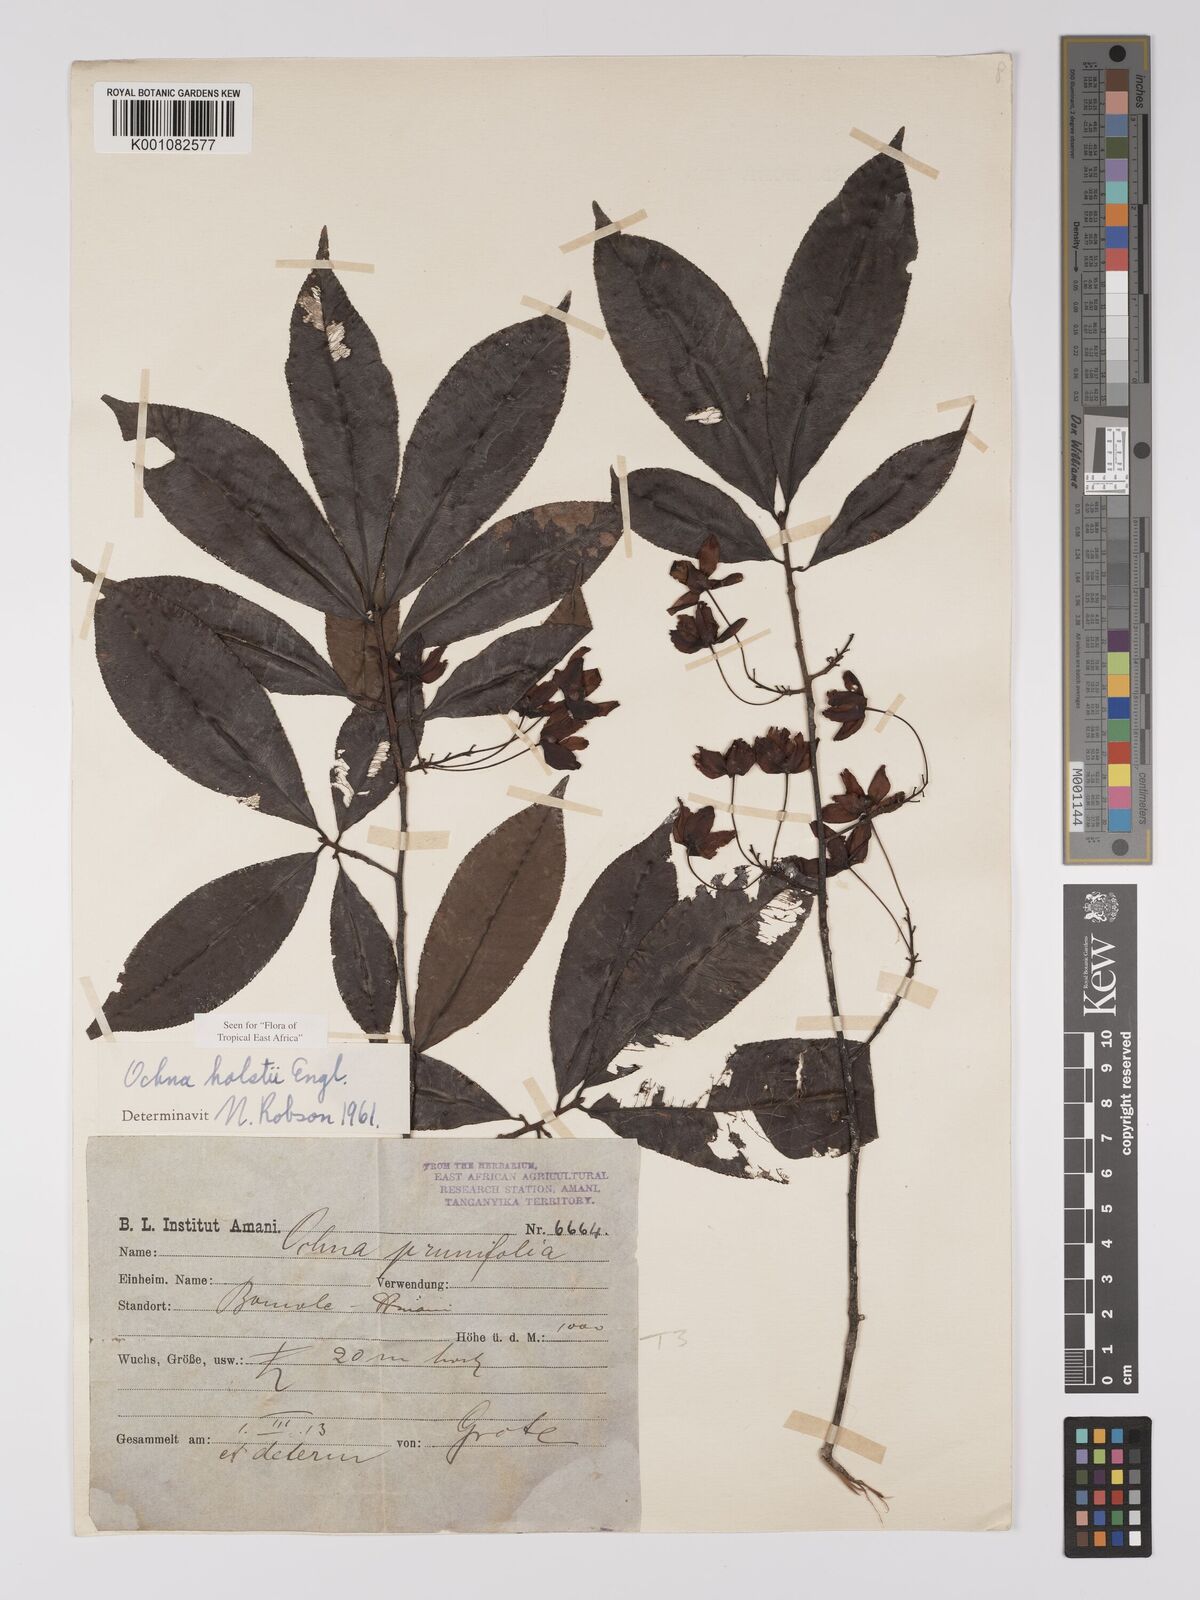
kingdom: Plantae
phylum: Tracheophyta
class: Magnoliopsida
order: Malpighiales
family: Ochnaceae
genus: Ochna
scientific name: Ochna holstii
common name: Red ironwood
